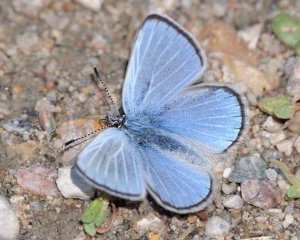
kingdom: Animalia
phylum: Arthropoda
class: Insecta
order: Lepidoptera
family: Lycaenidae
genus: Glaucopsyche
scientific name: Glaucopsyche lygdamus
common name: Silvery Blue
